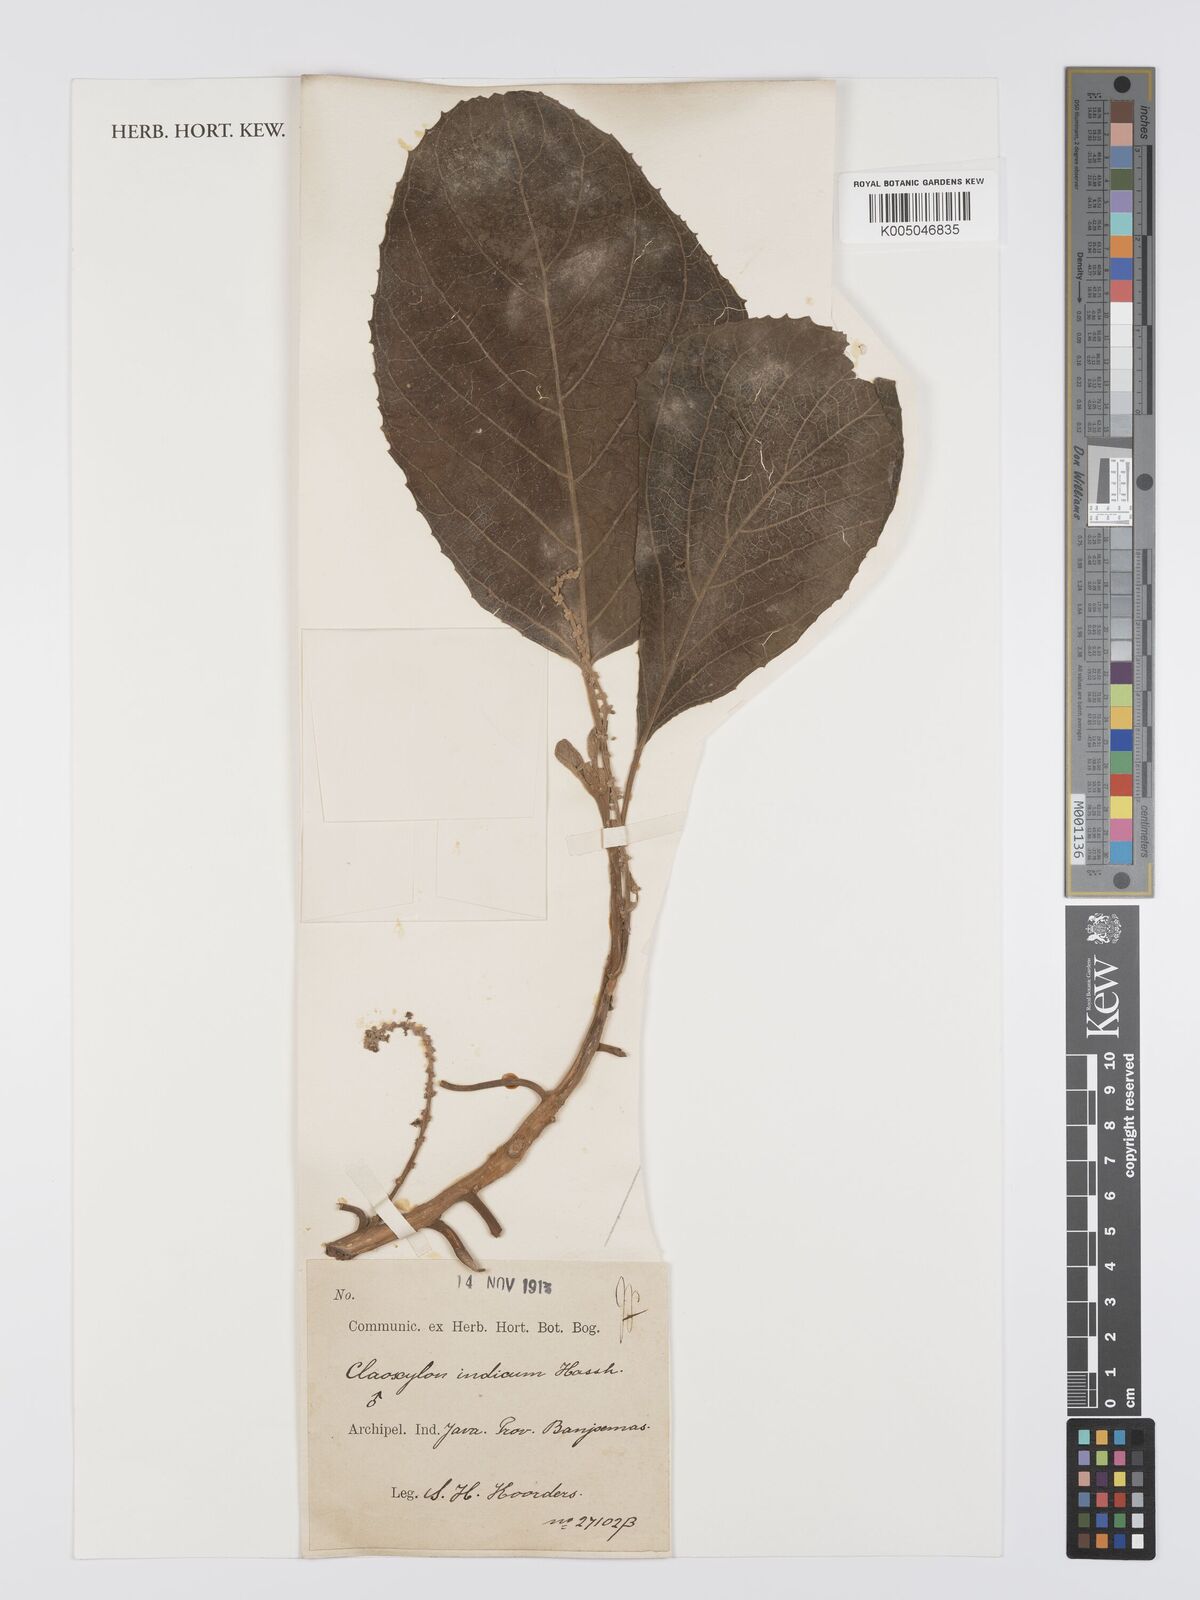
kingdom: Plantae
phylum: Tracheophyta
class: Magnoliopsida
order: Malpighiales
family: Euphorbiaceae
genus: Claoxylon
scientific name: Claoxylon indicum
